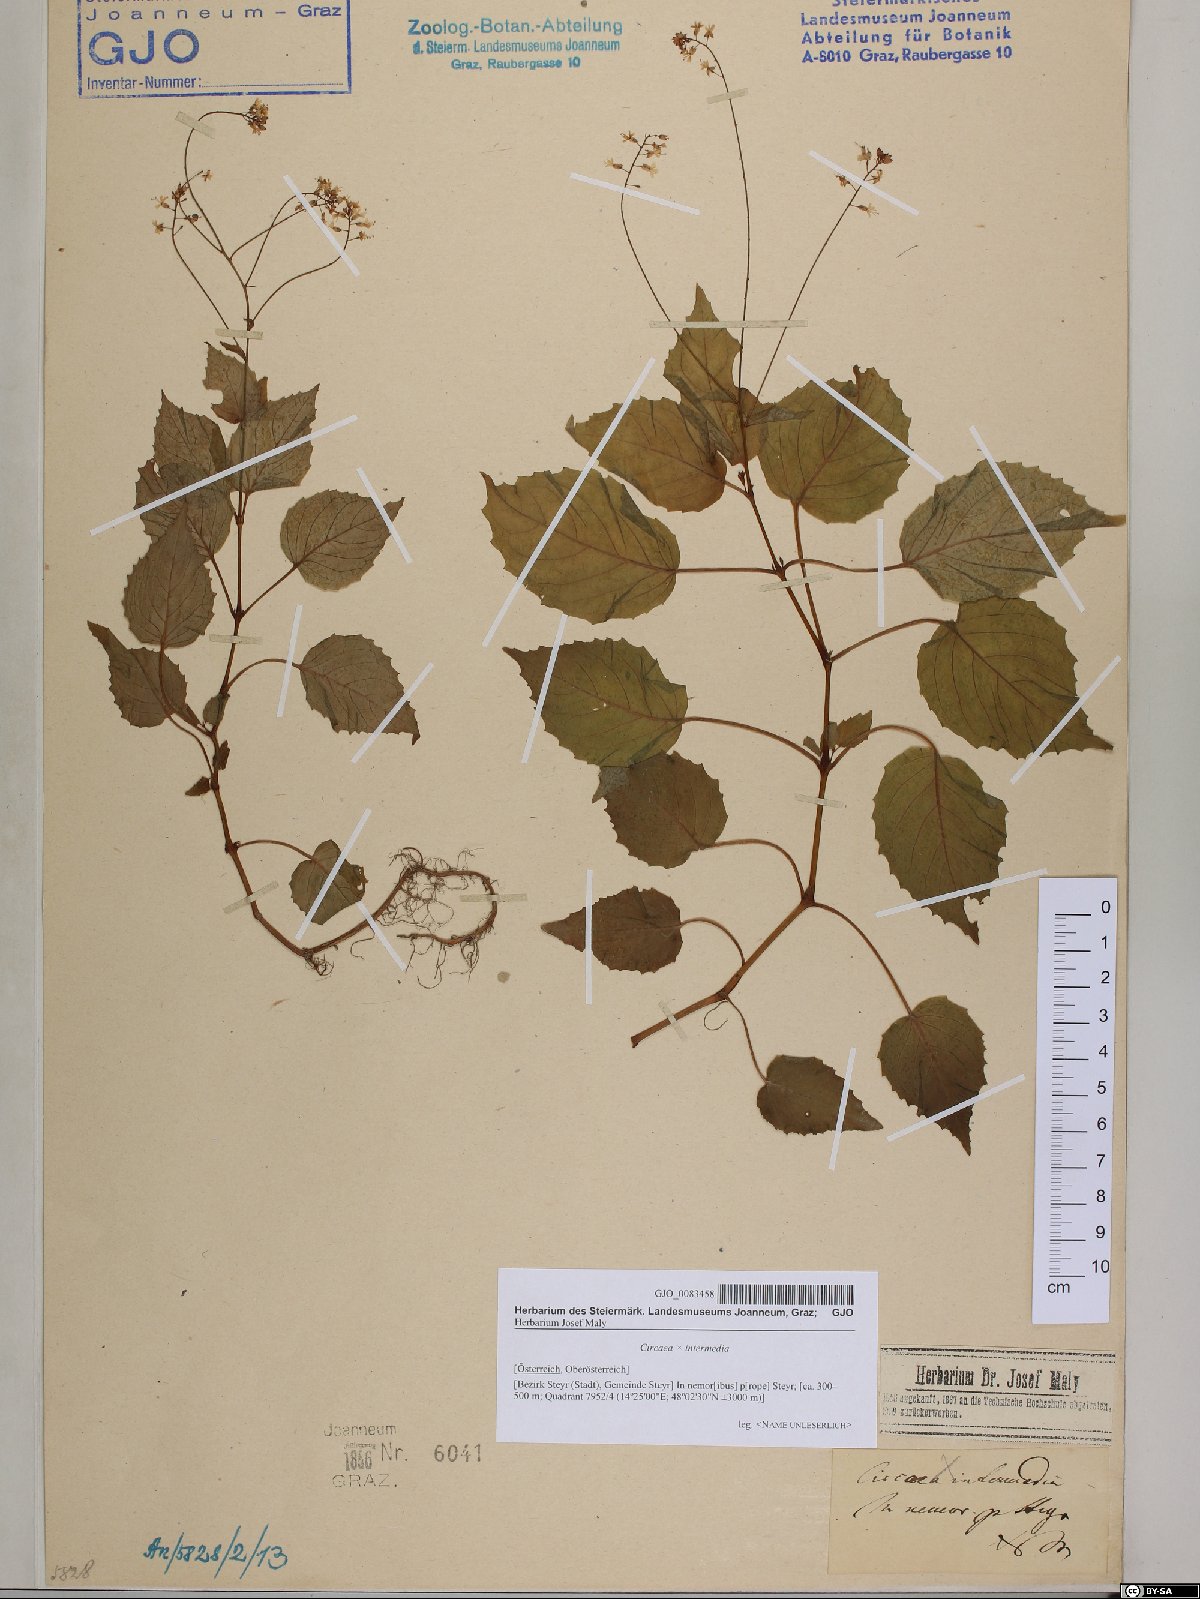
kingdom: Plantae
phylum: Tracheophyta
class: Magnoliopsida
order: Myrtales
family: Onagraceae
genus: Circaea
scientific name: Circaea intermedia
